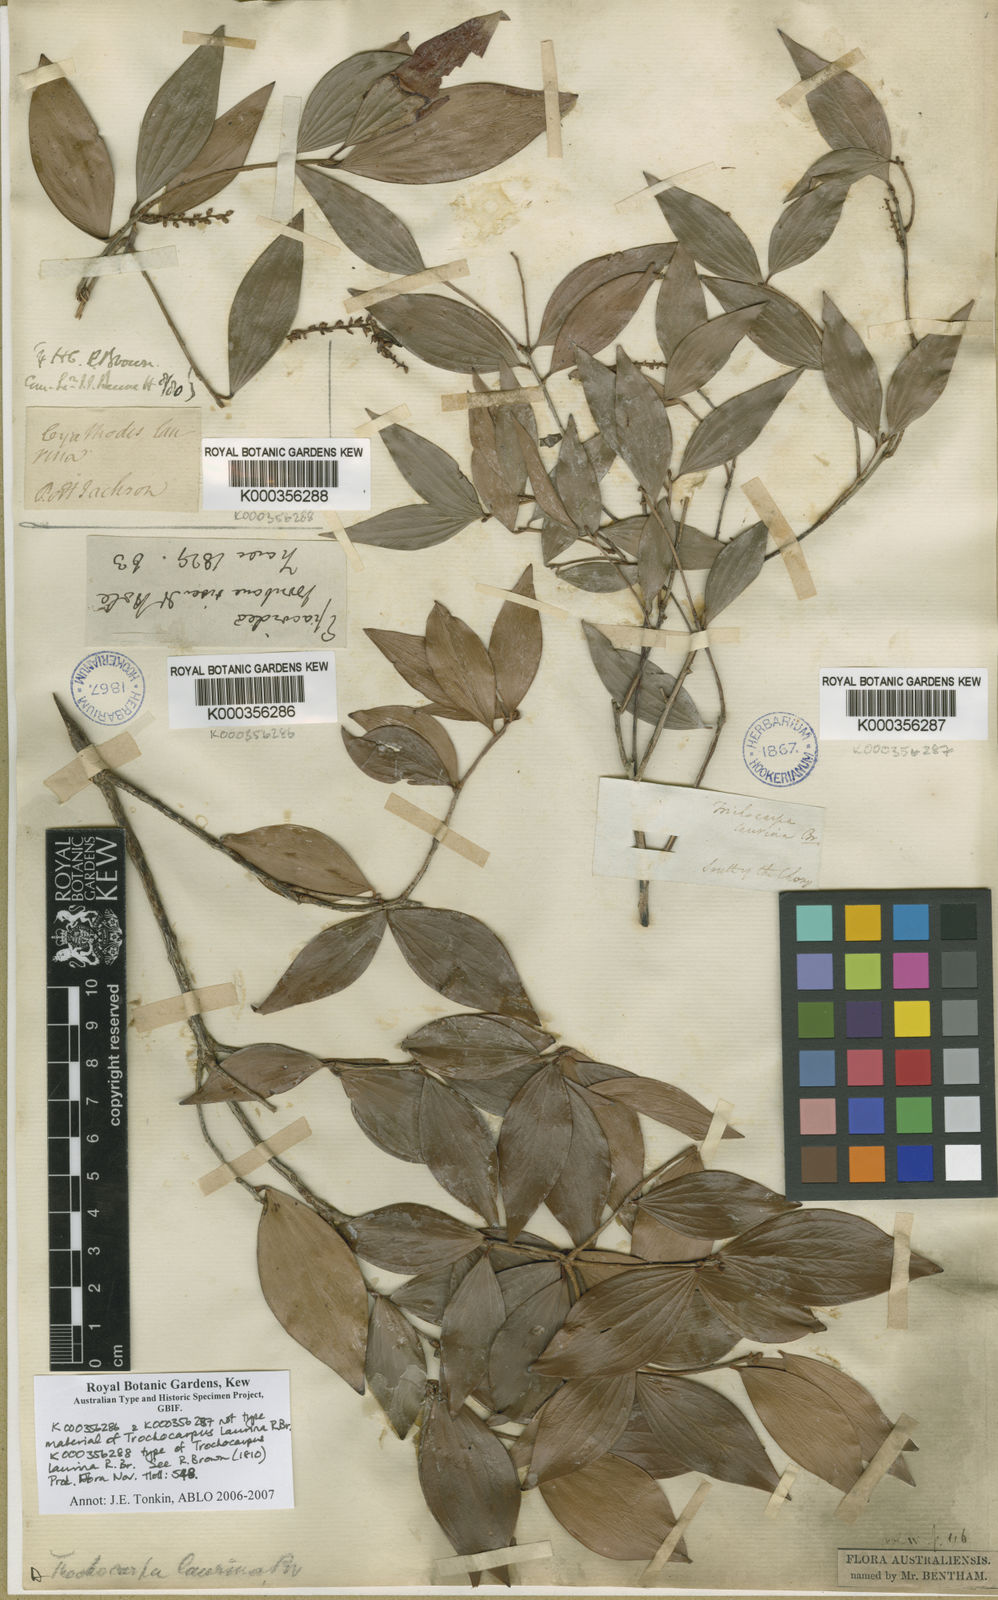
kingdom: Plantae
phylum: Tracheophyta
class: Magnoliopsida
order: Ericales
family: Ericaceae
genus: Trochocarpa
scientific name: Trochocarpa laurina
